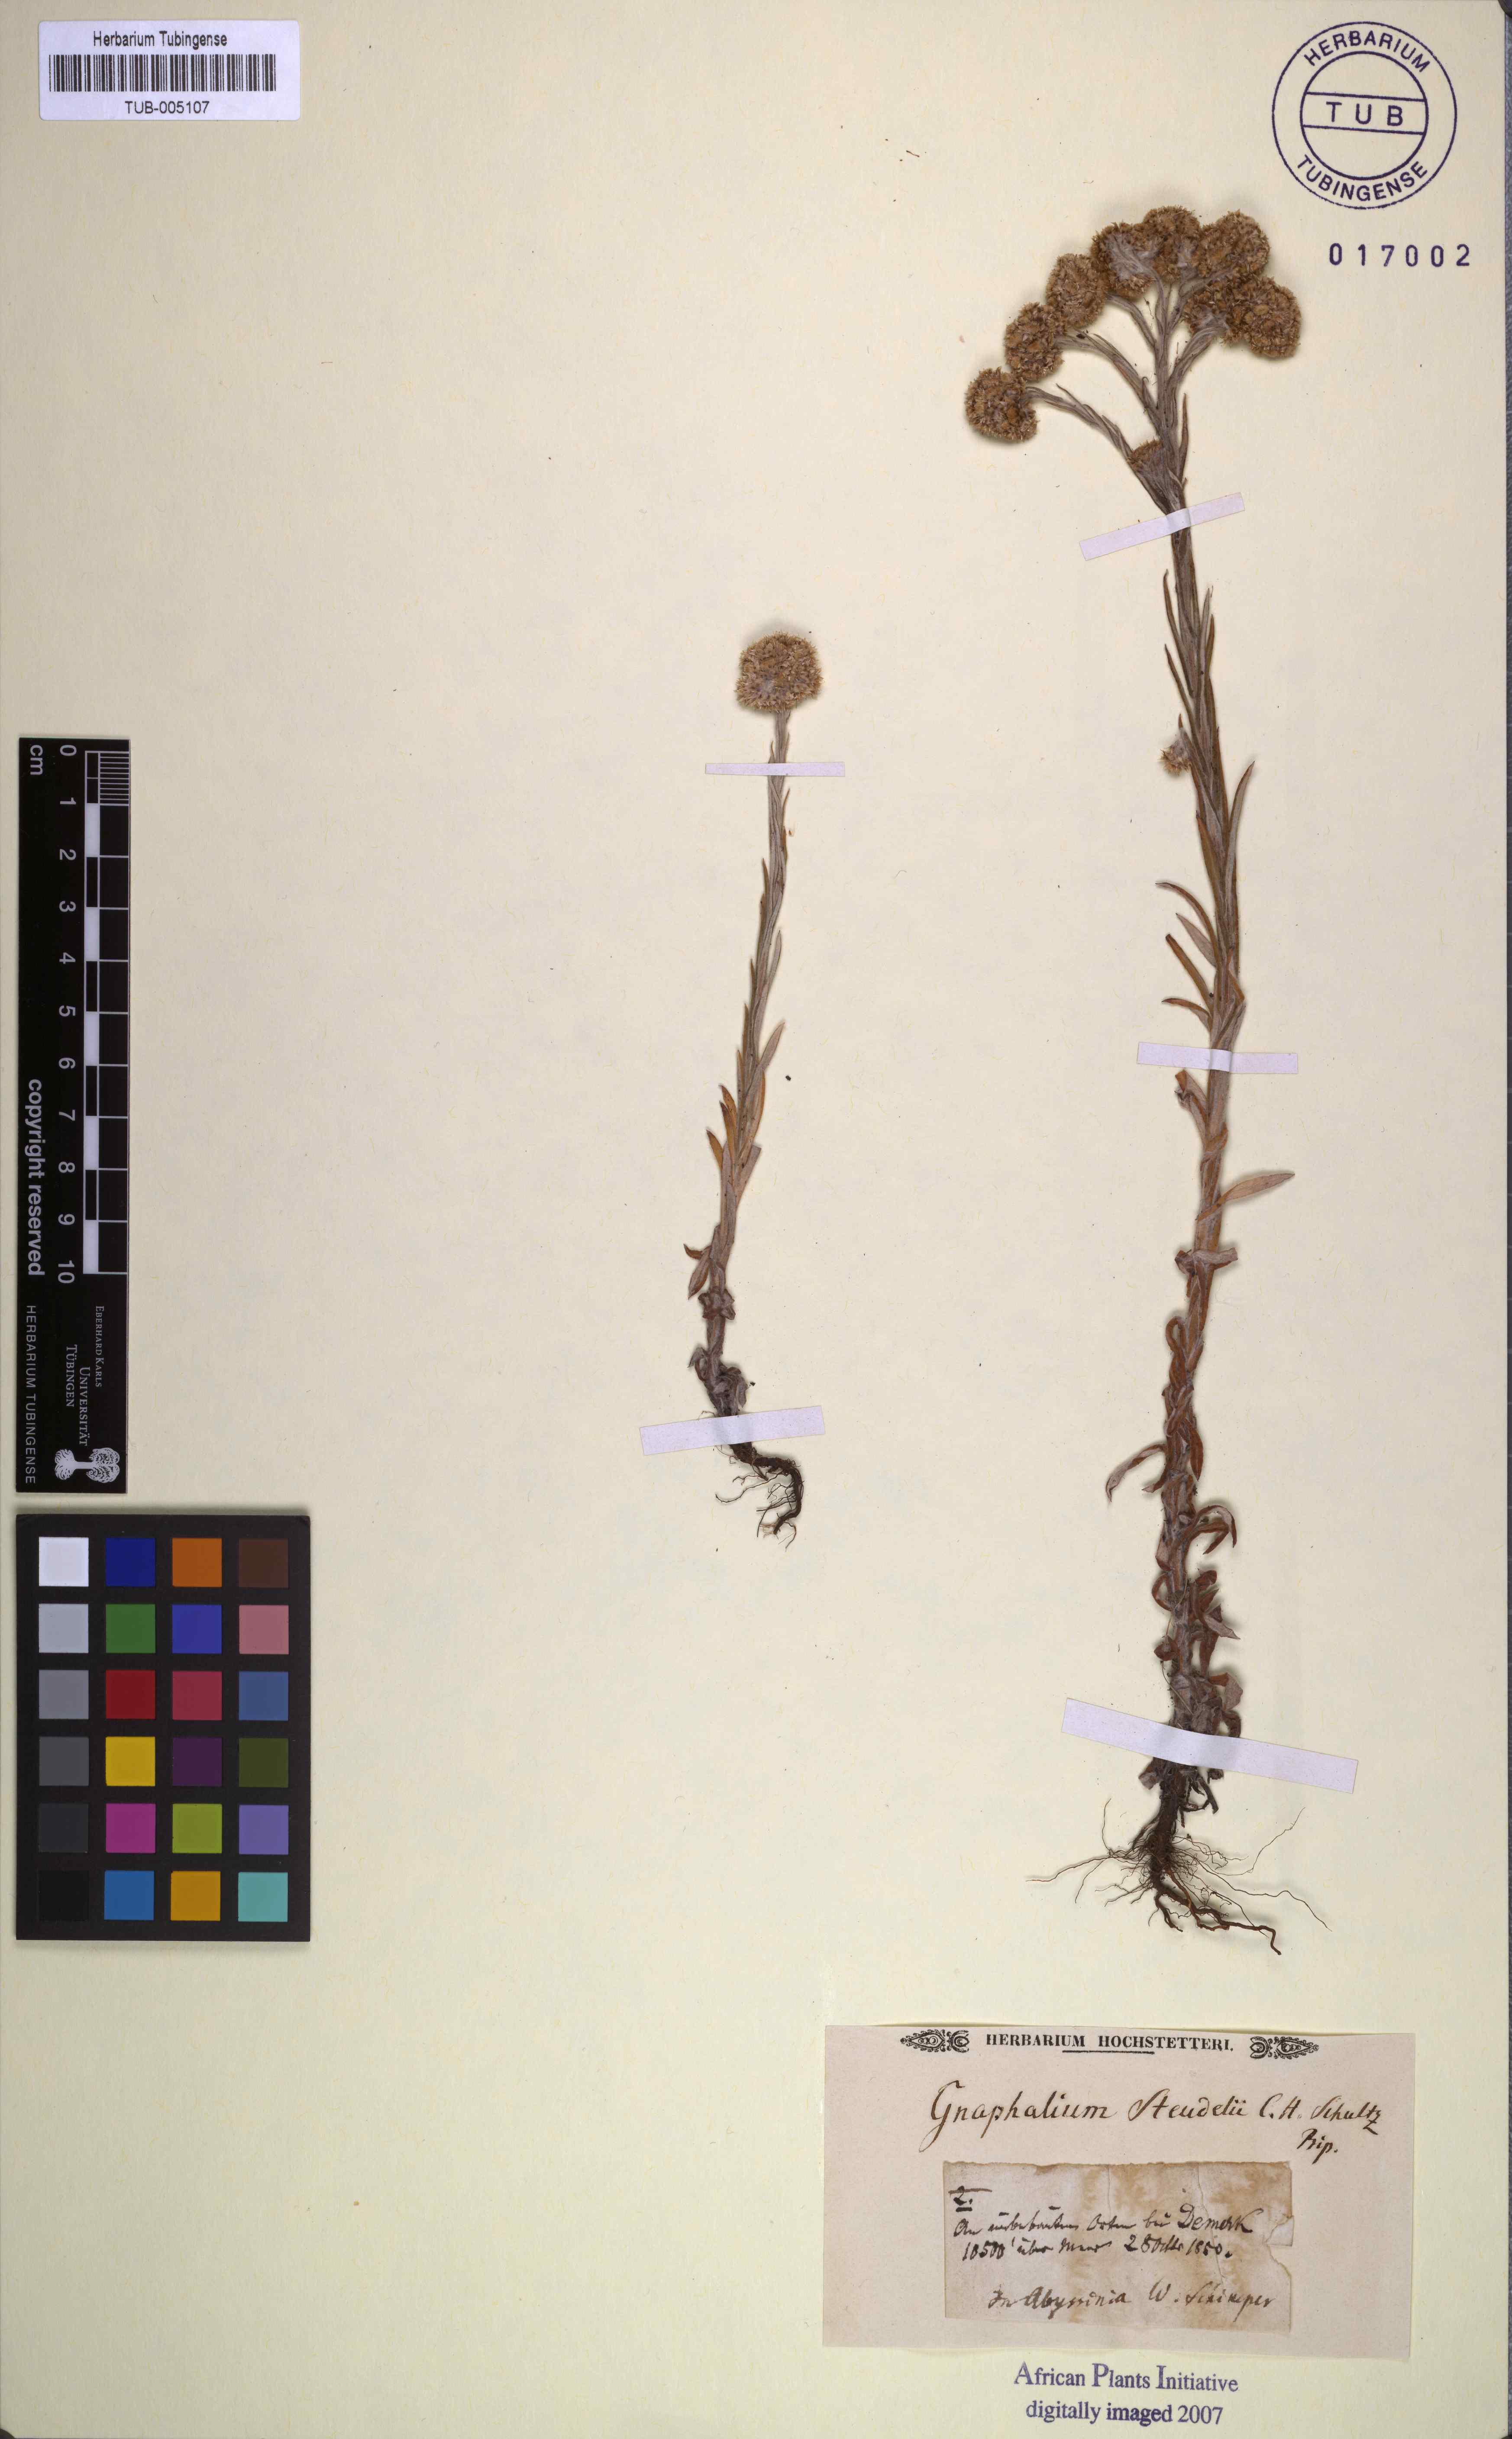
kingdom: Plantae
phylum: Tracheophyta
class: Magnoliopsida
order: Asterales
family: Asteraceae
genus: Pseudognaphalium
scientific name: Pseudognaphalium oligandrum
